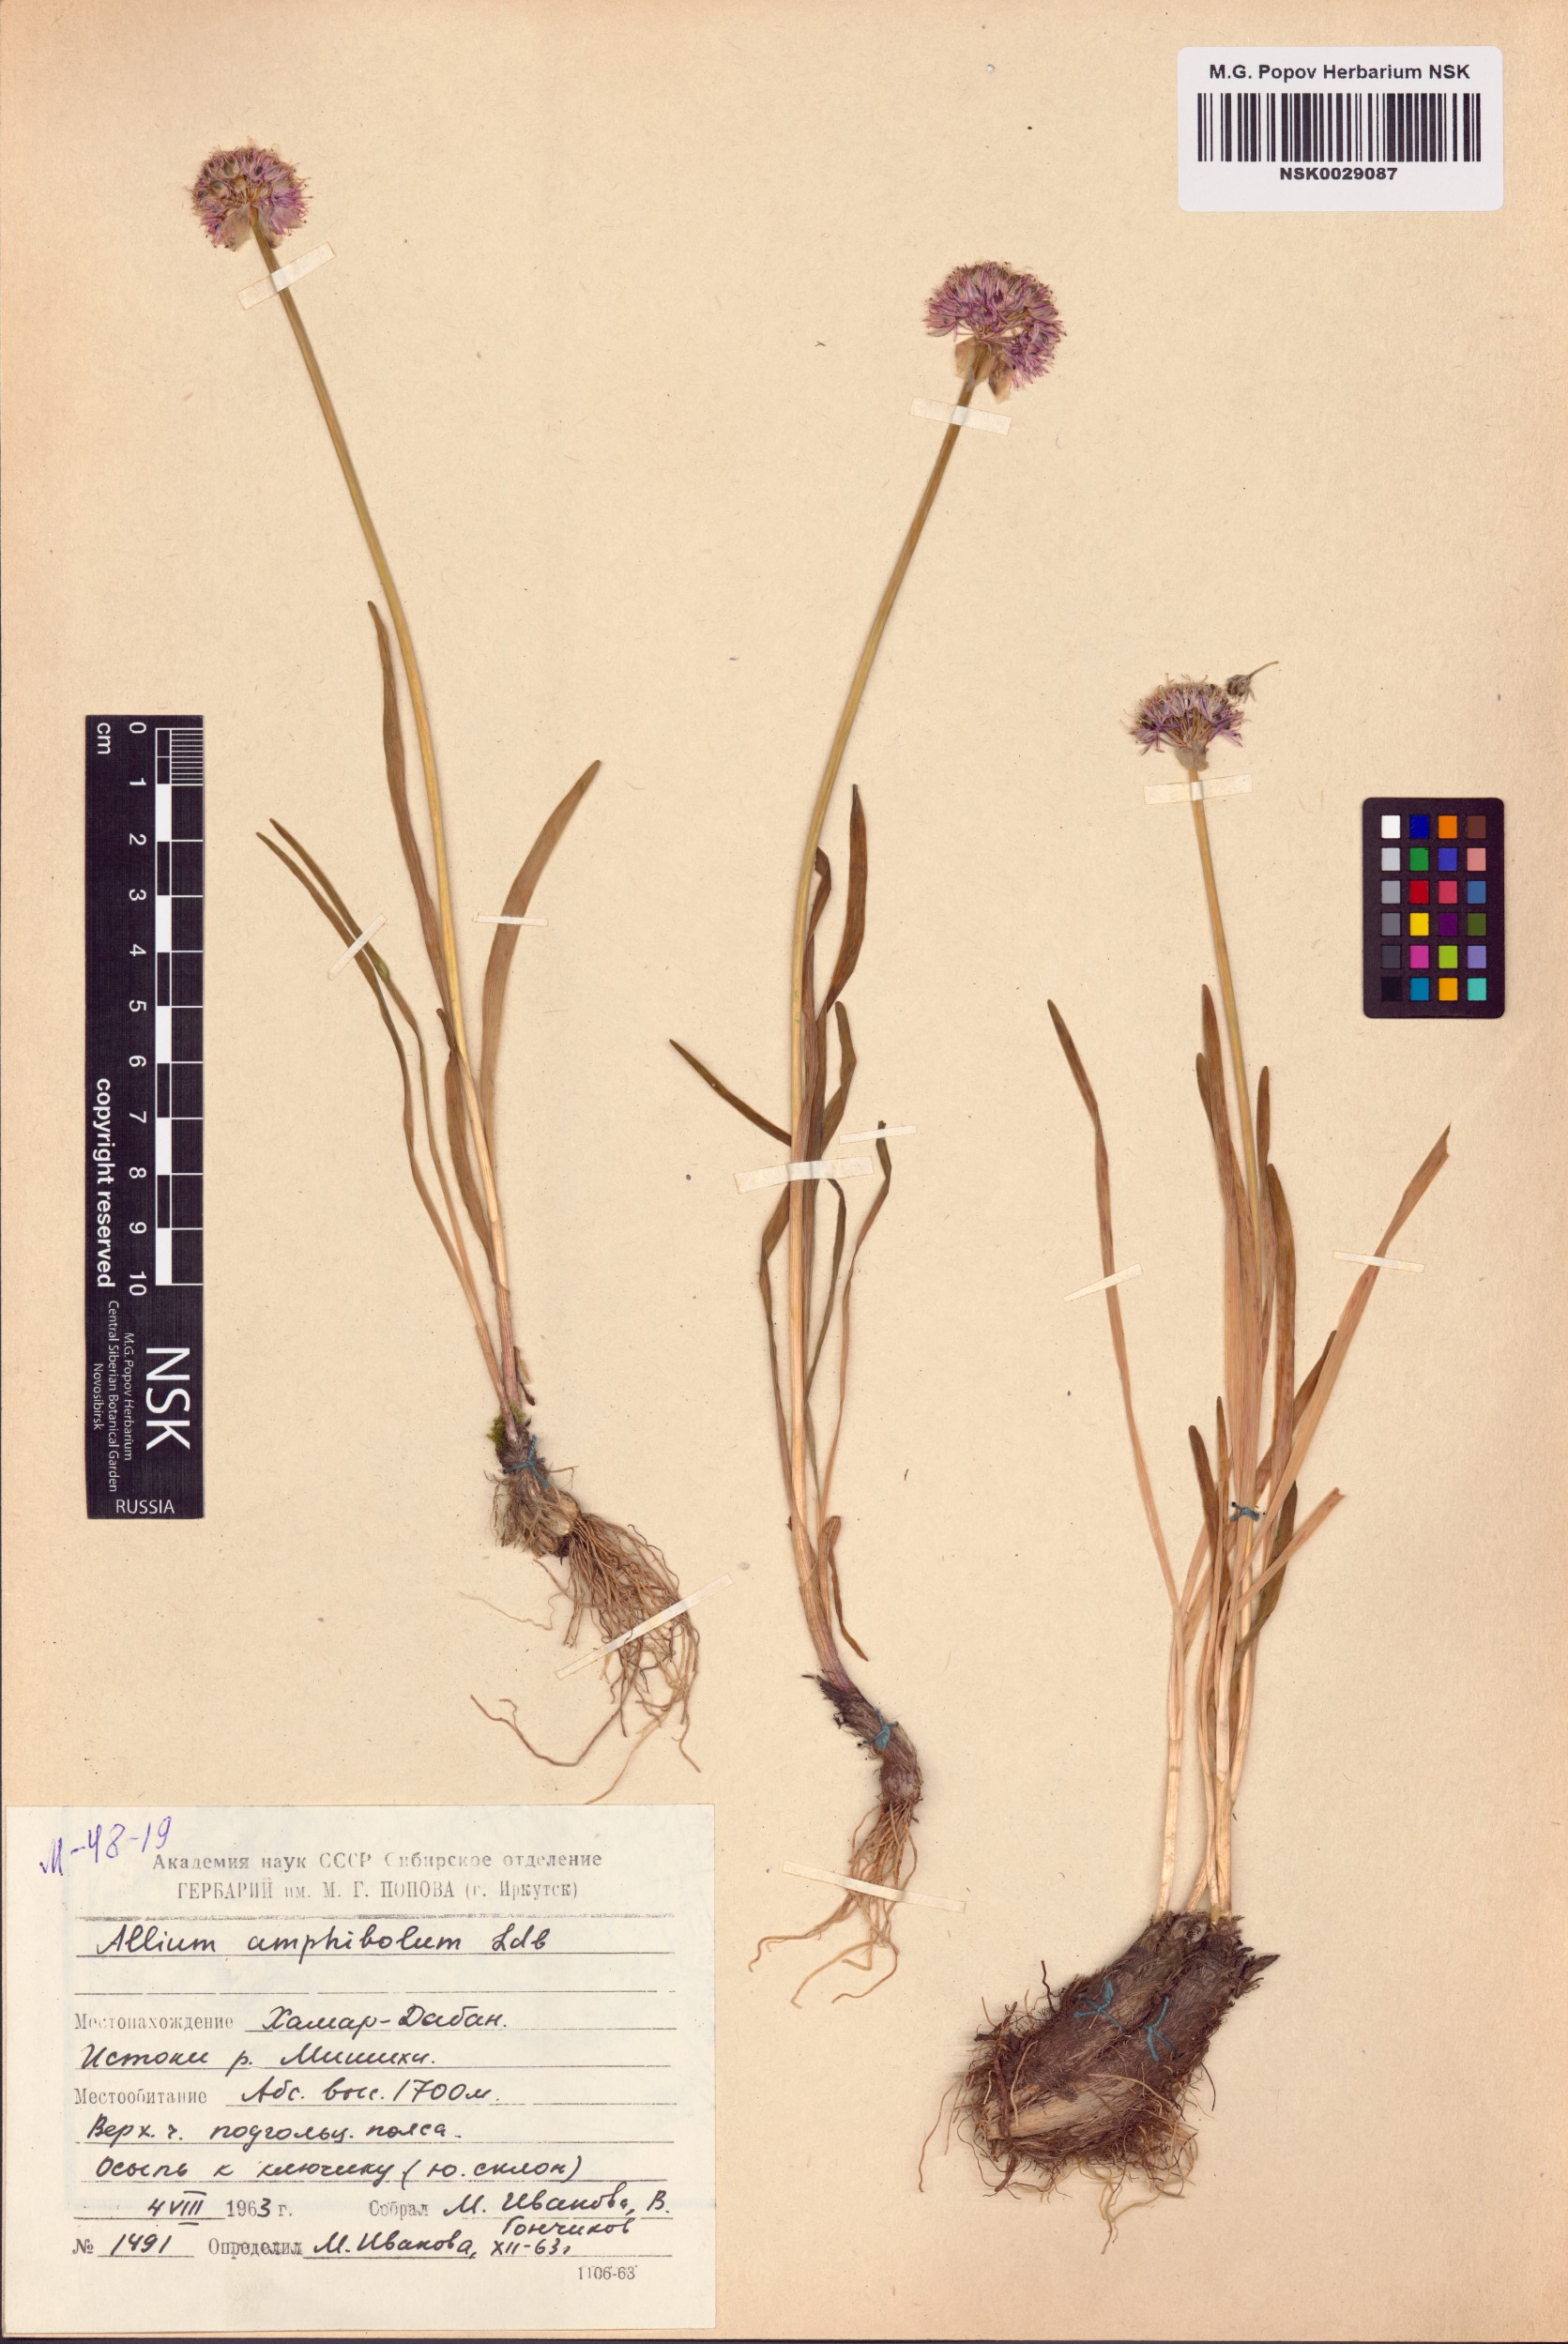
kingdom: Plantae
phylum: Tracheophyta
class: Liliopsida
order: Asparagales
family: Amaryllidaceae
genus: Allium
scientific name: Allium amphibolum
